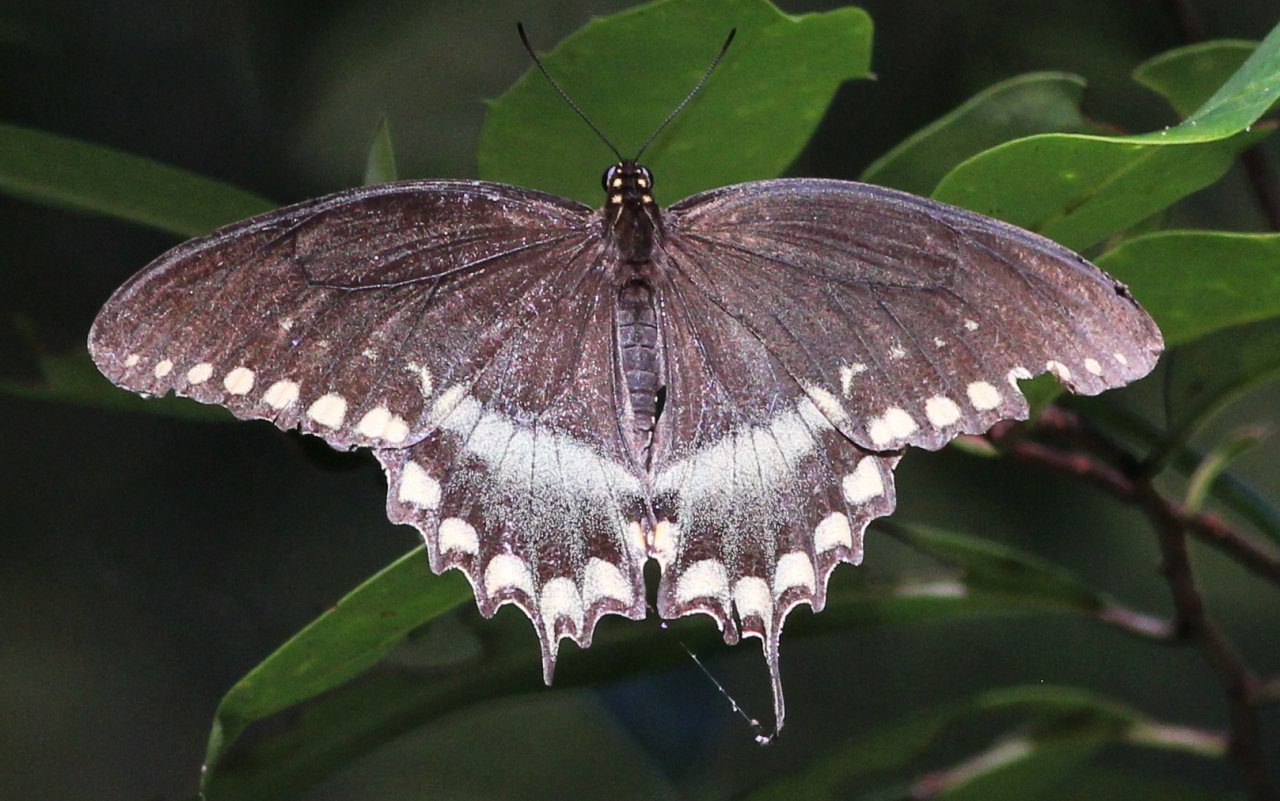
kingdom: Animalia
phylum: Arthropoda
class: Insecta
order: Lepidoptera
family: Papilionidae
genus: Pterourus
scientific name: Pterourus troilus
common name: Spicebush Swallowtail
